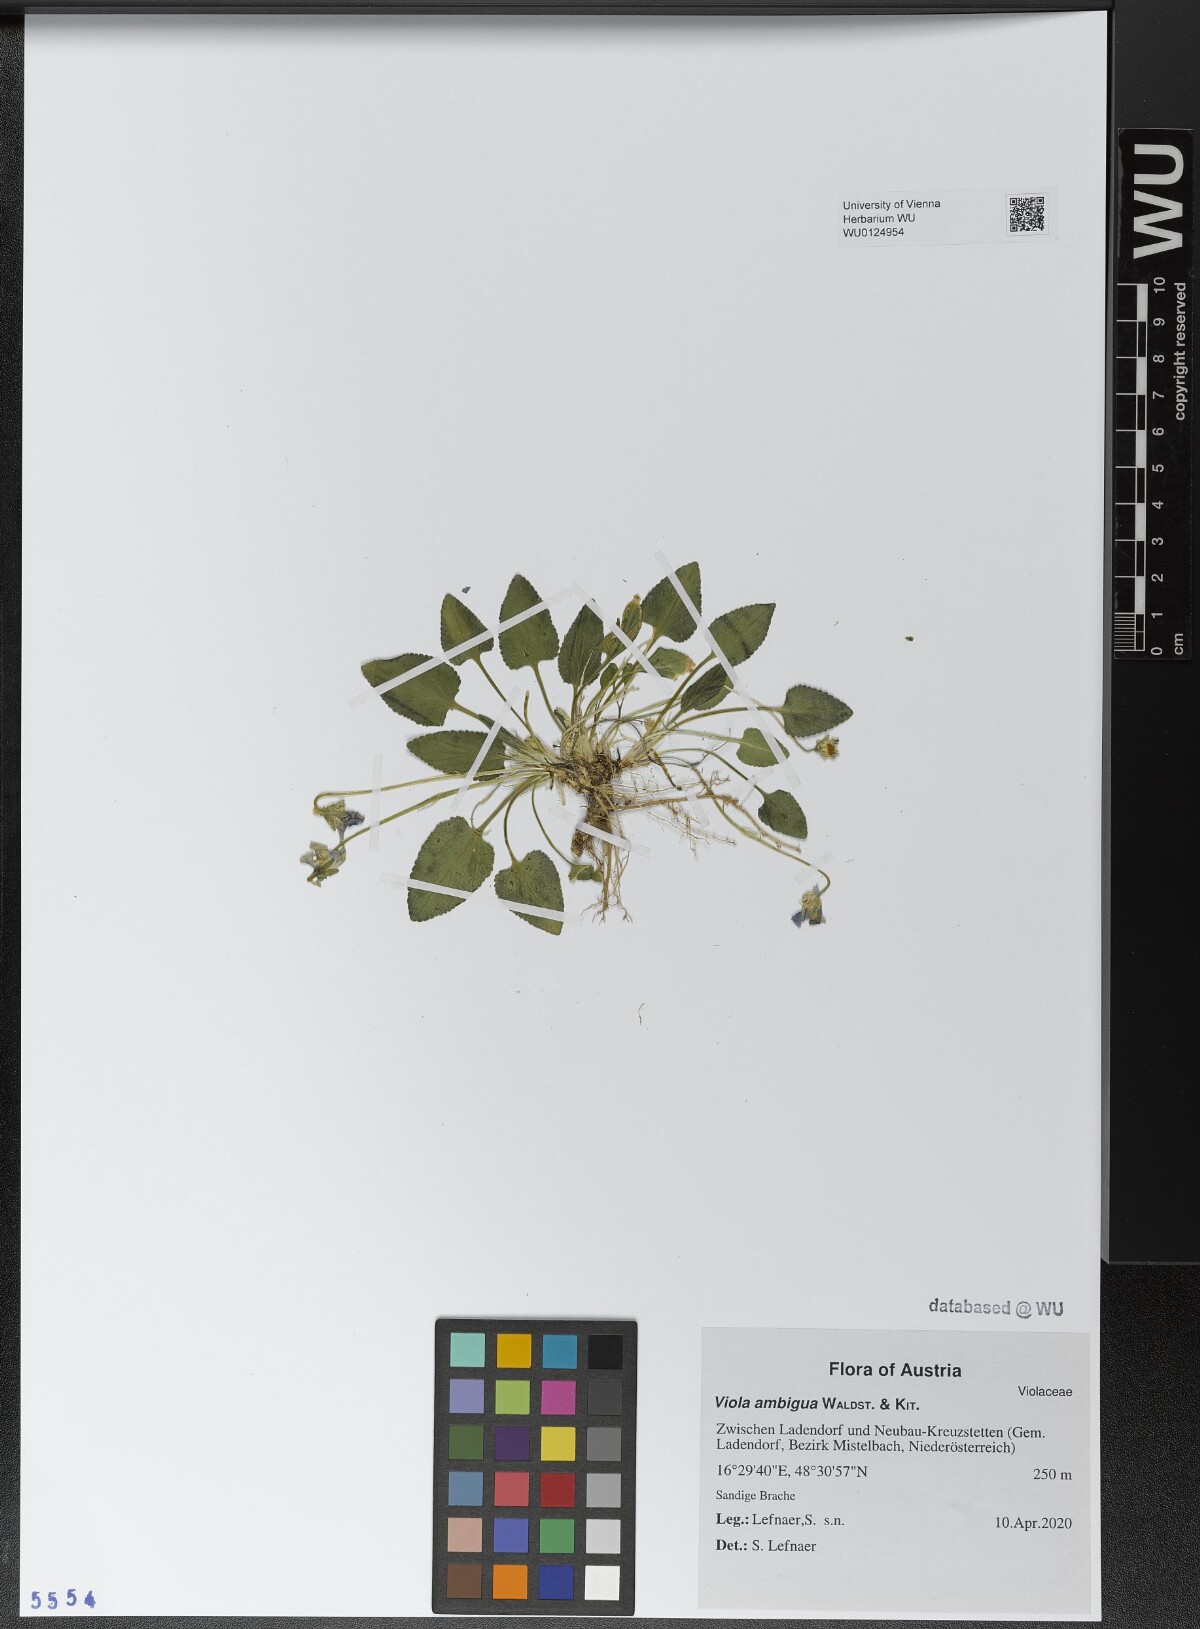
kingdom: Plantae
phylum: Tracheophyta
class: Magnoliopsida
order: Malpighiales
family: Violaceae
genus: Viola
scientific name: Viola ambigua
